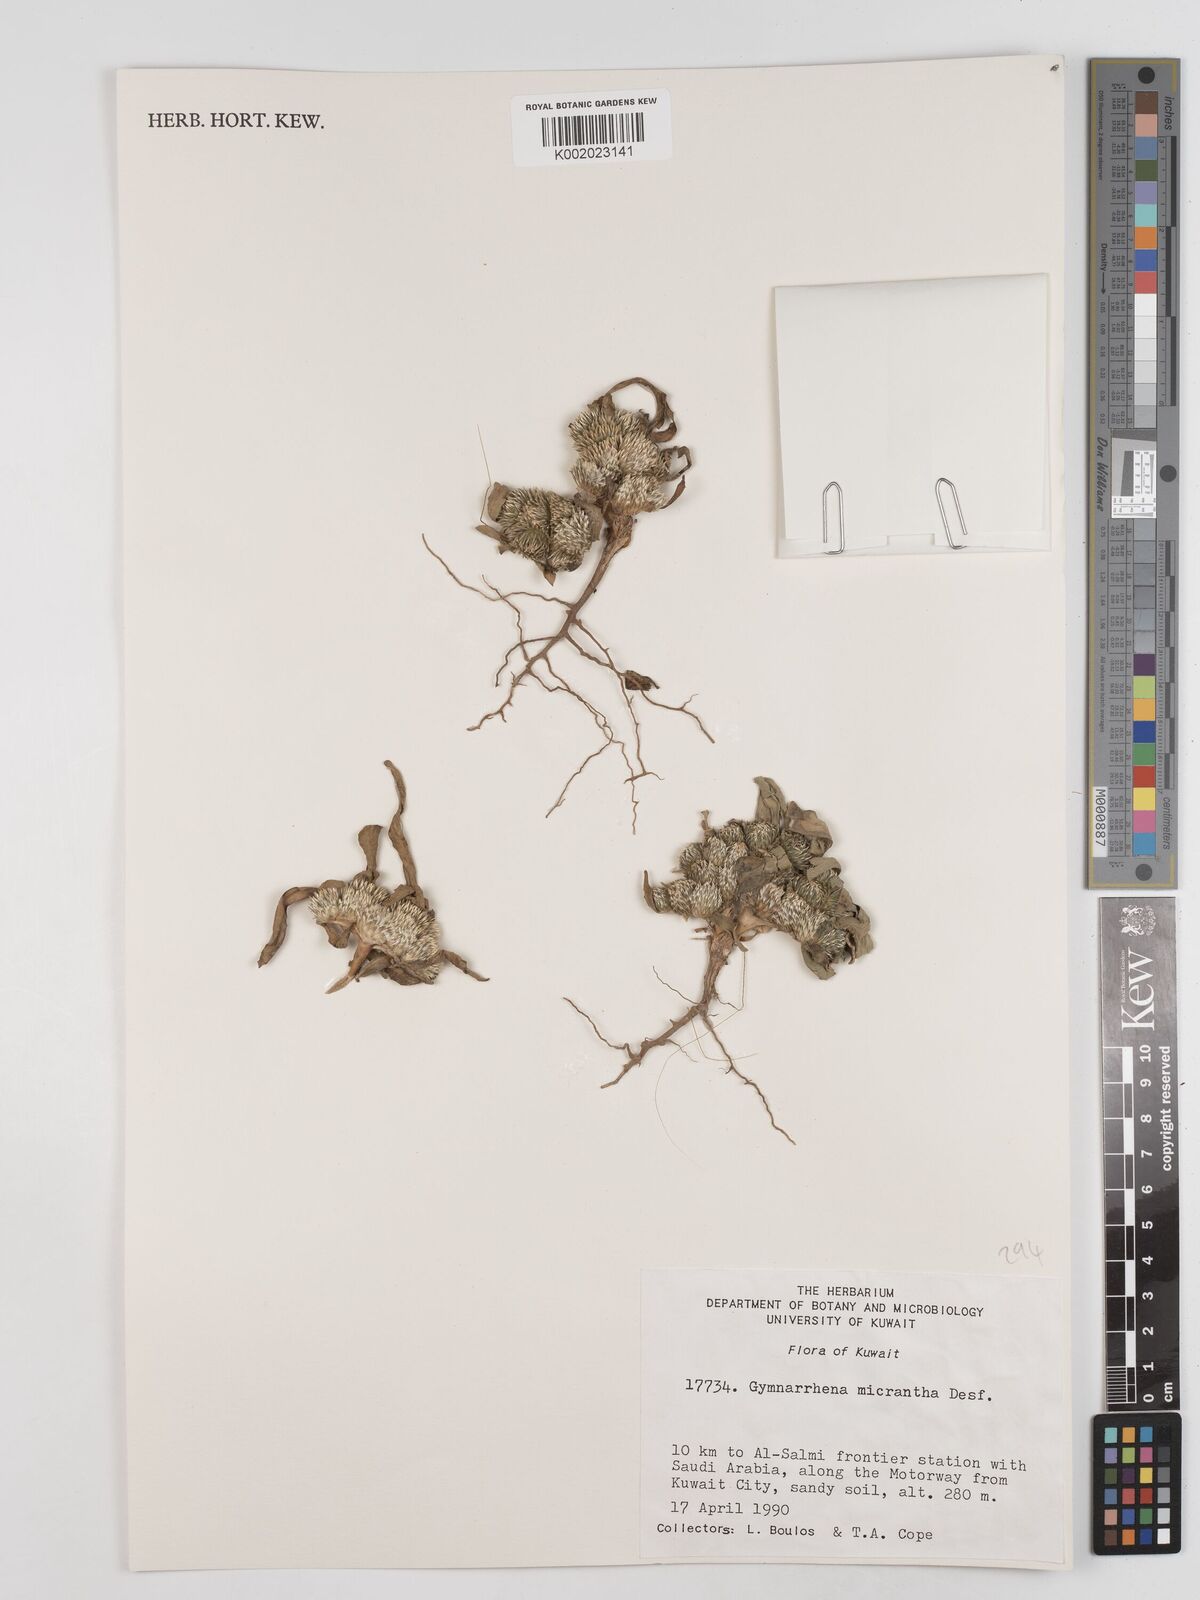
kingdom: Plantae
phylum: Tracheophyta
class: Magnoliopsida
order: Asterales
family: Asteraceae
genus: Gymnarrhena
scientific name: Gymnarrhena micrantha
